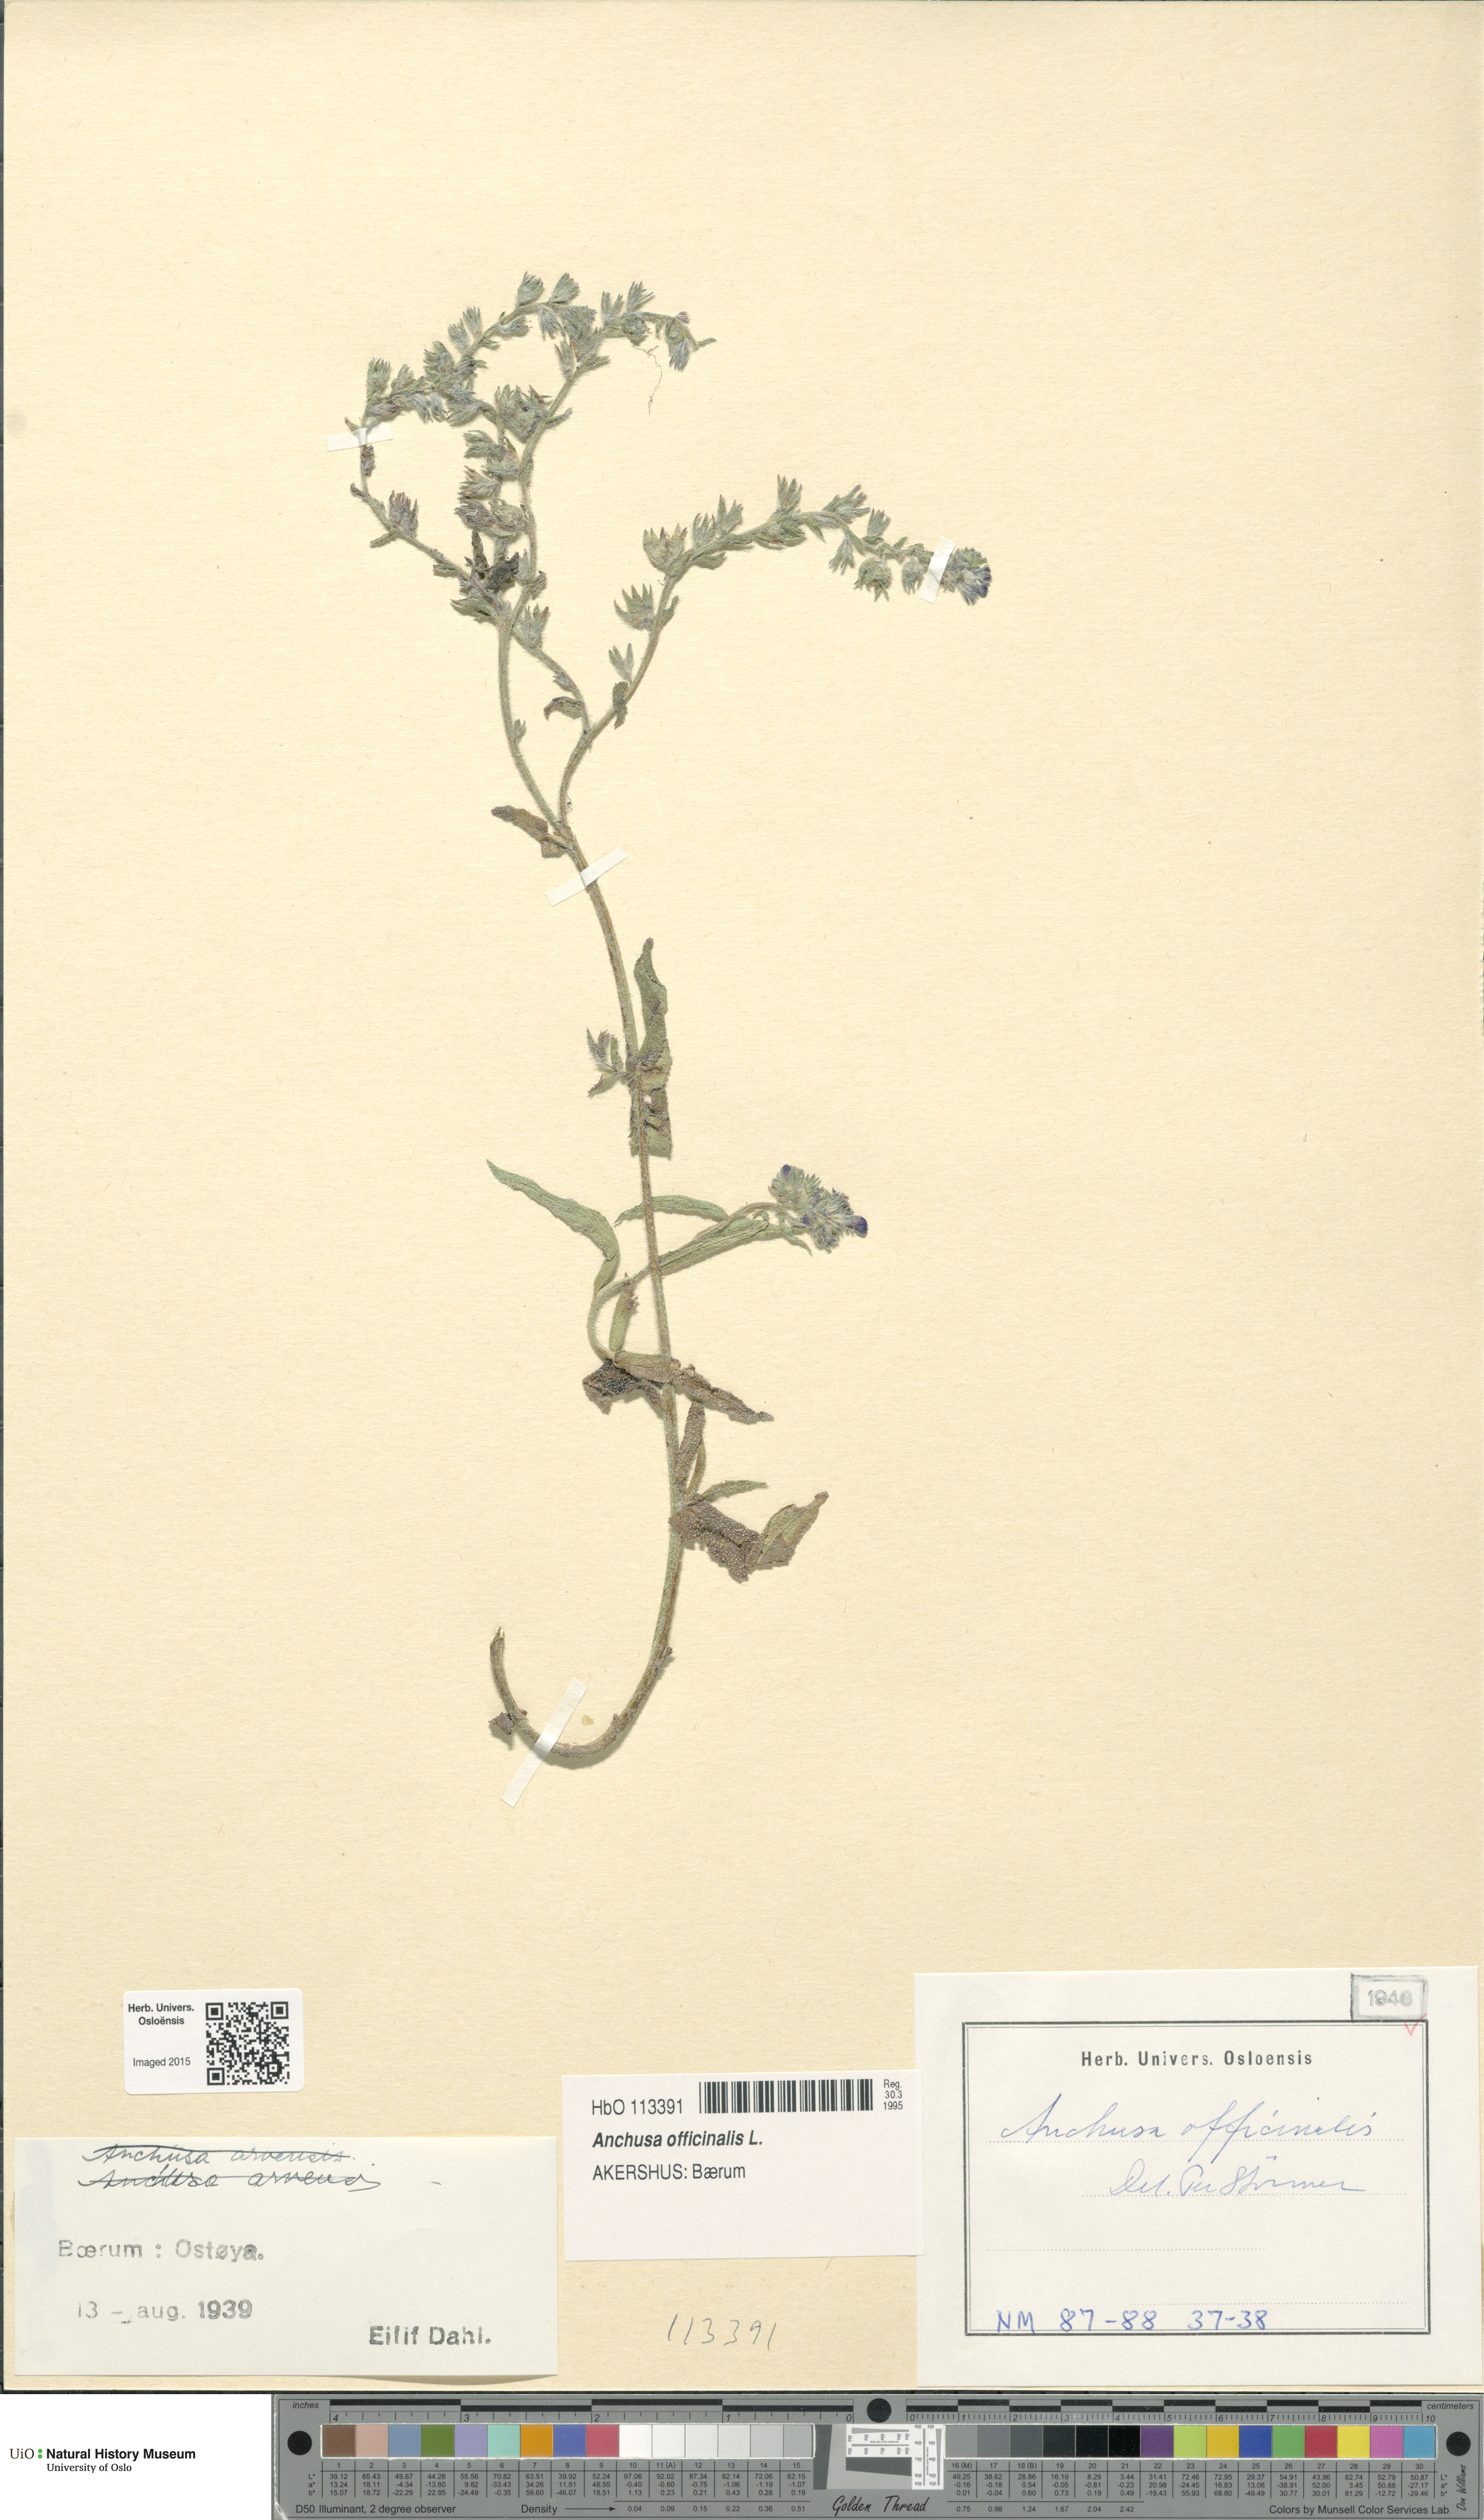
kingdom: Plantae
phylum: Tracheophyta
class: Magnoliopsida
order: Boraginales
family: Boraginaceae
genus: Anchusa
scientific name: Anchusa officinalis
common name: Alkanet
